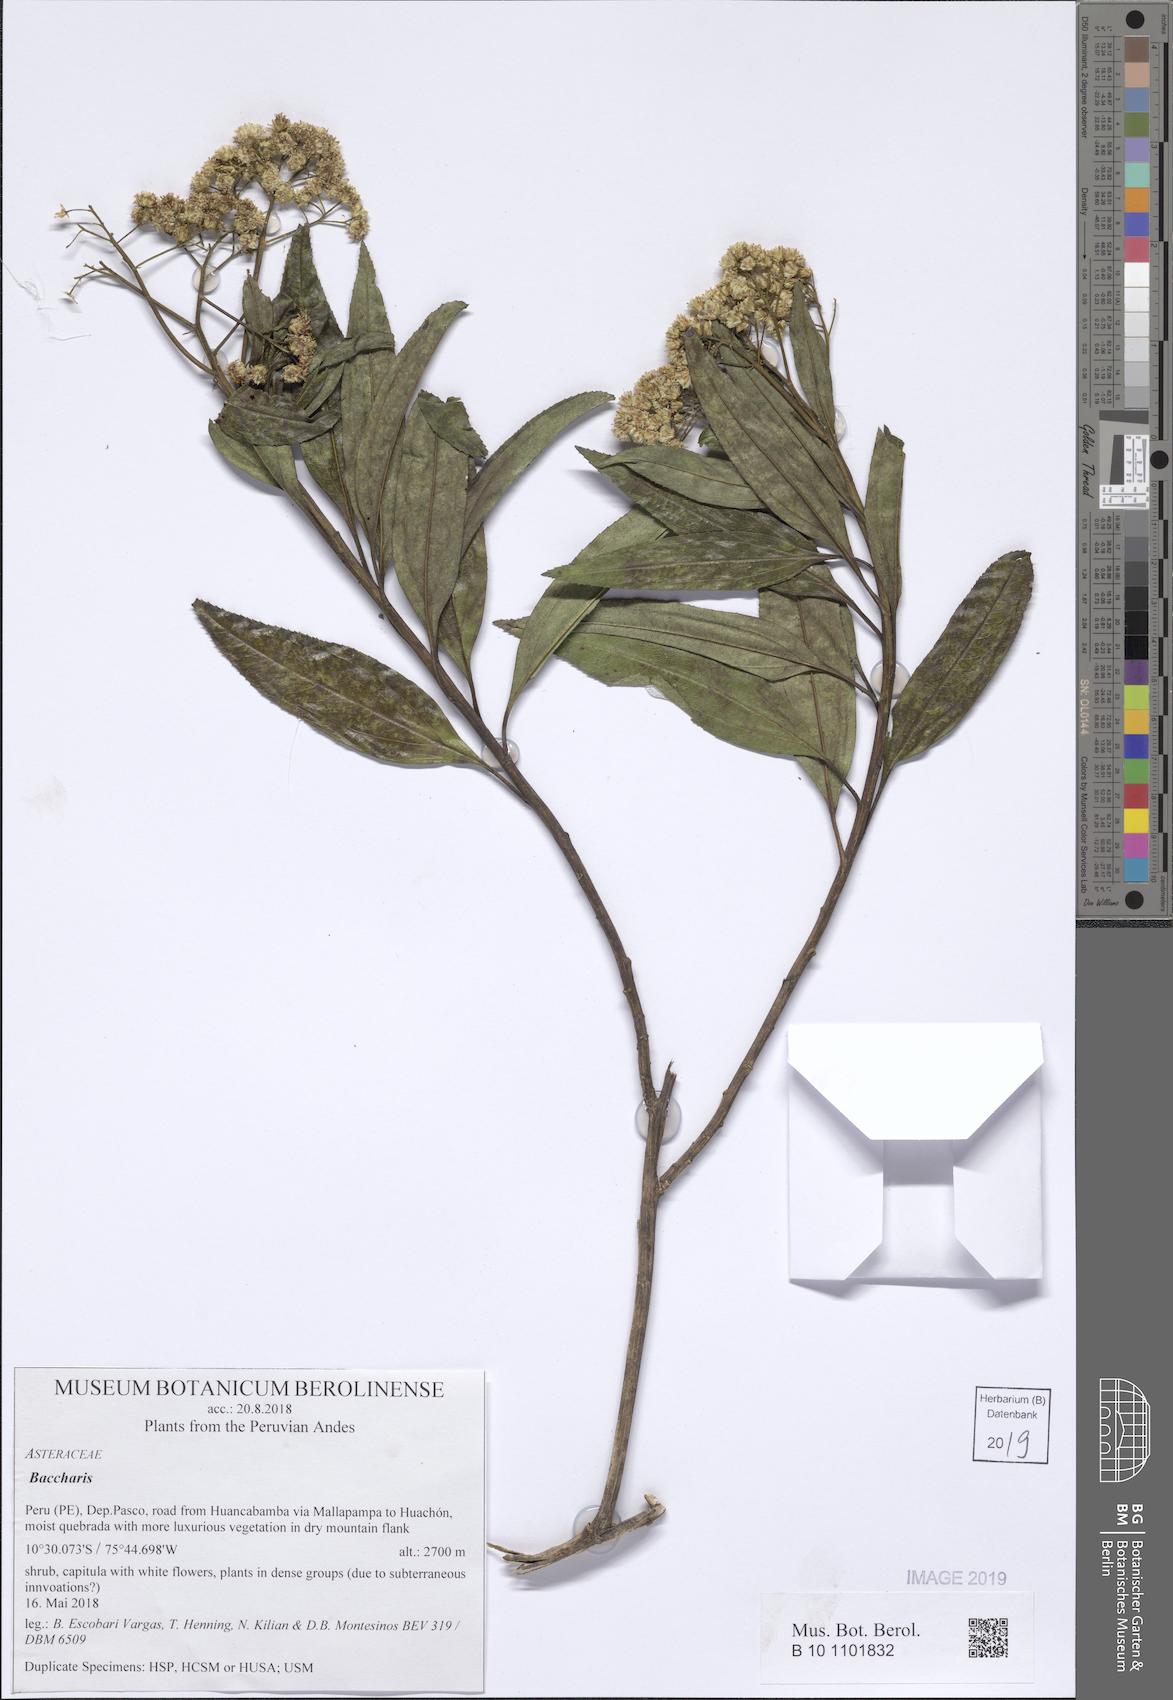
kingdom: Plantae
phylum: Tracheophyta
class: Magnoliopsida
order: Asterales
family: Asteraceae
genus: Baccharis
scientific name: Baccharis latifolia
